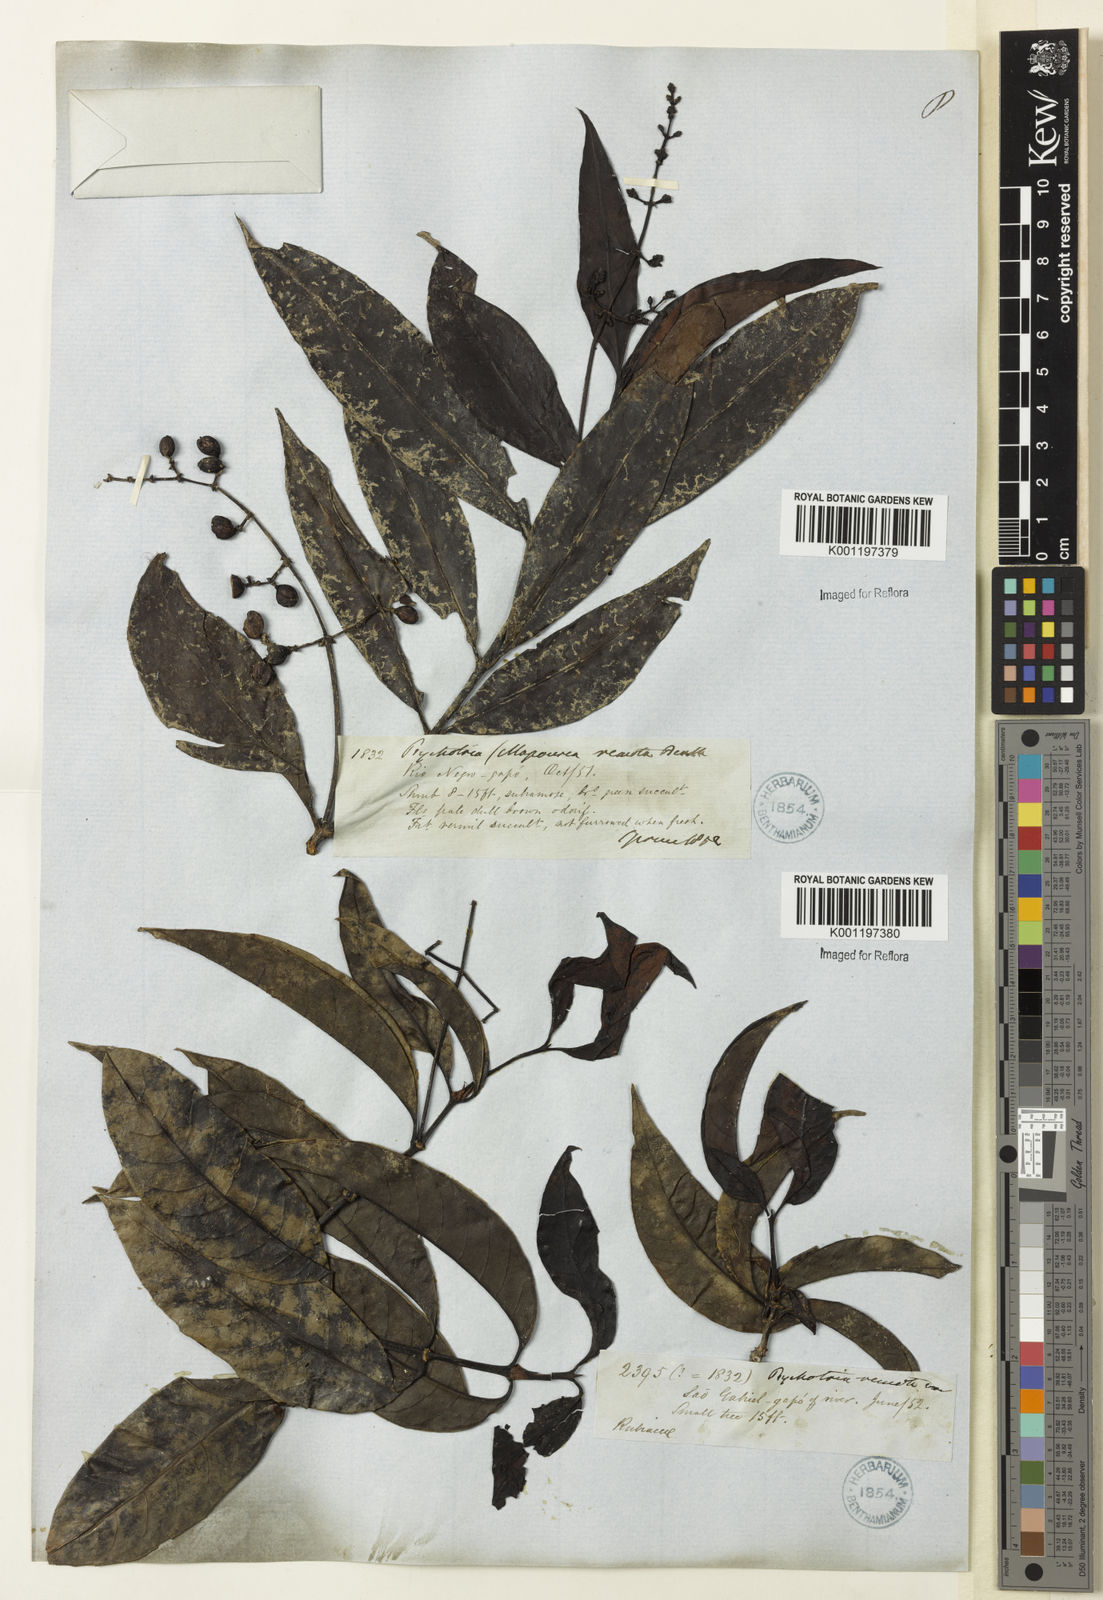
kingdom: Plantae
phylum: Tracheophyta
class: Magnoliopsida
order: Gentianales
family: Rubiaceae
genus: Psychotria
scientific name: Psychotria remota
